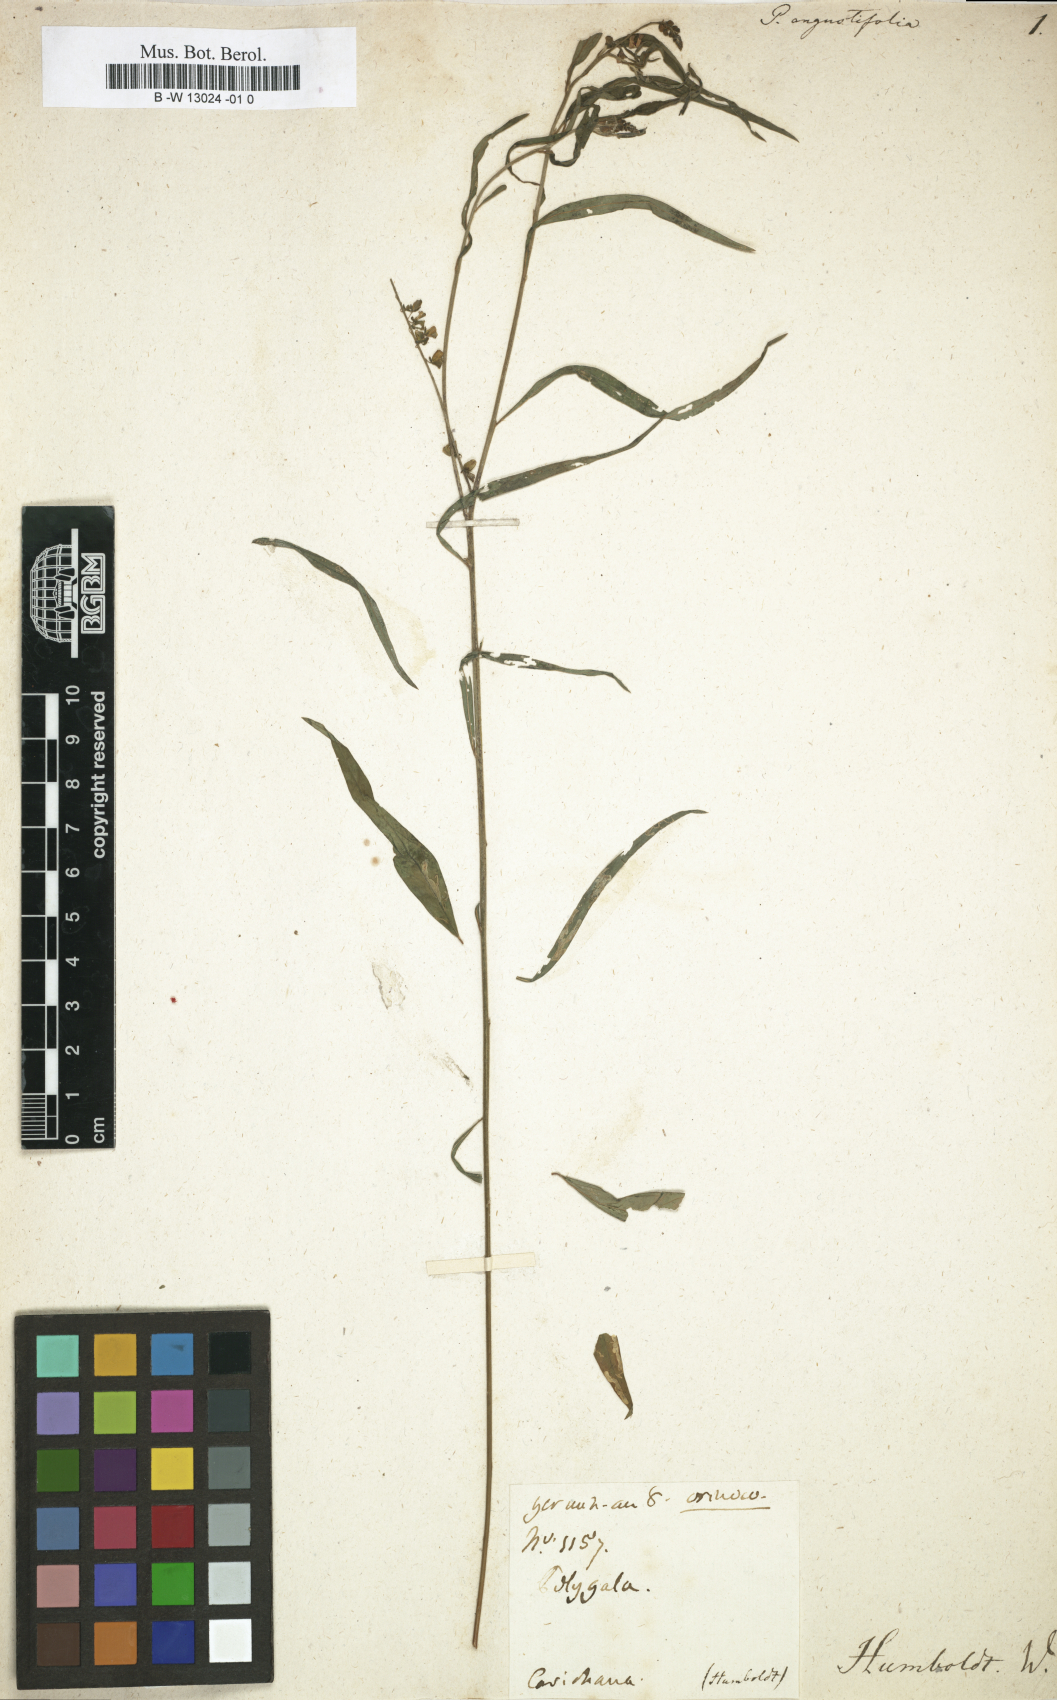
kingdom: Plantae
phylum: Tracheophyta
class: Magnoliopsida
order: Fabales
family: Polygalaceae
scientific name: Polygalaceae
